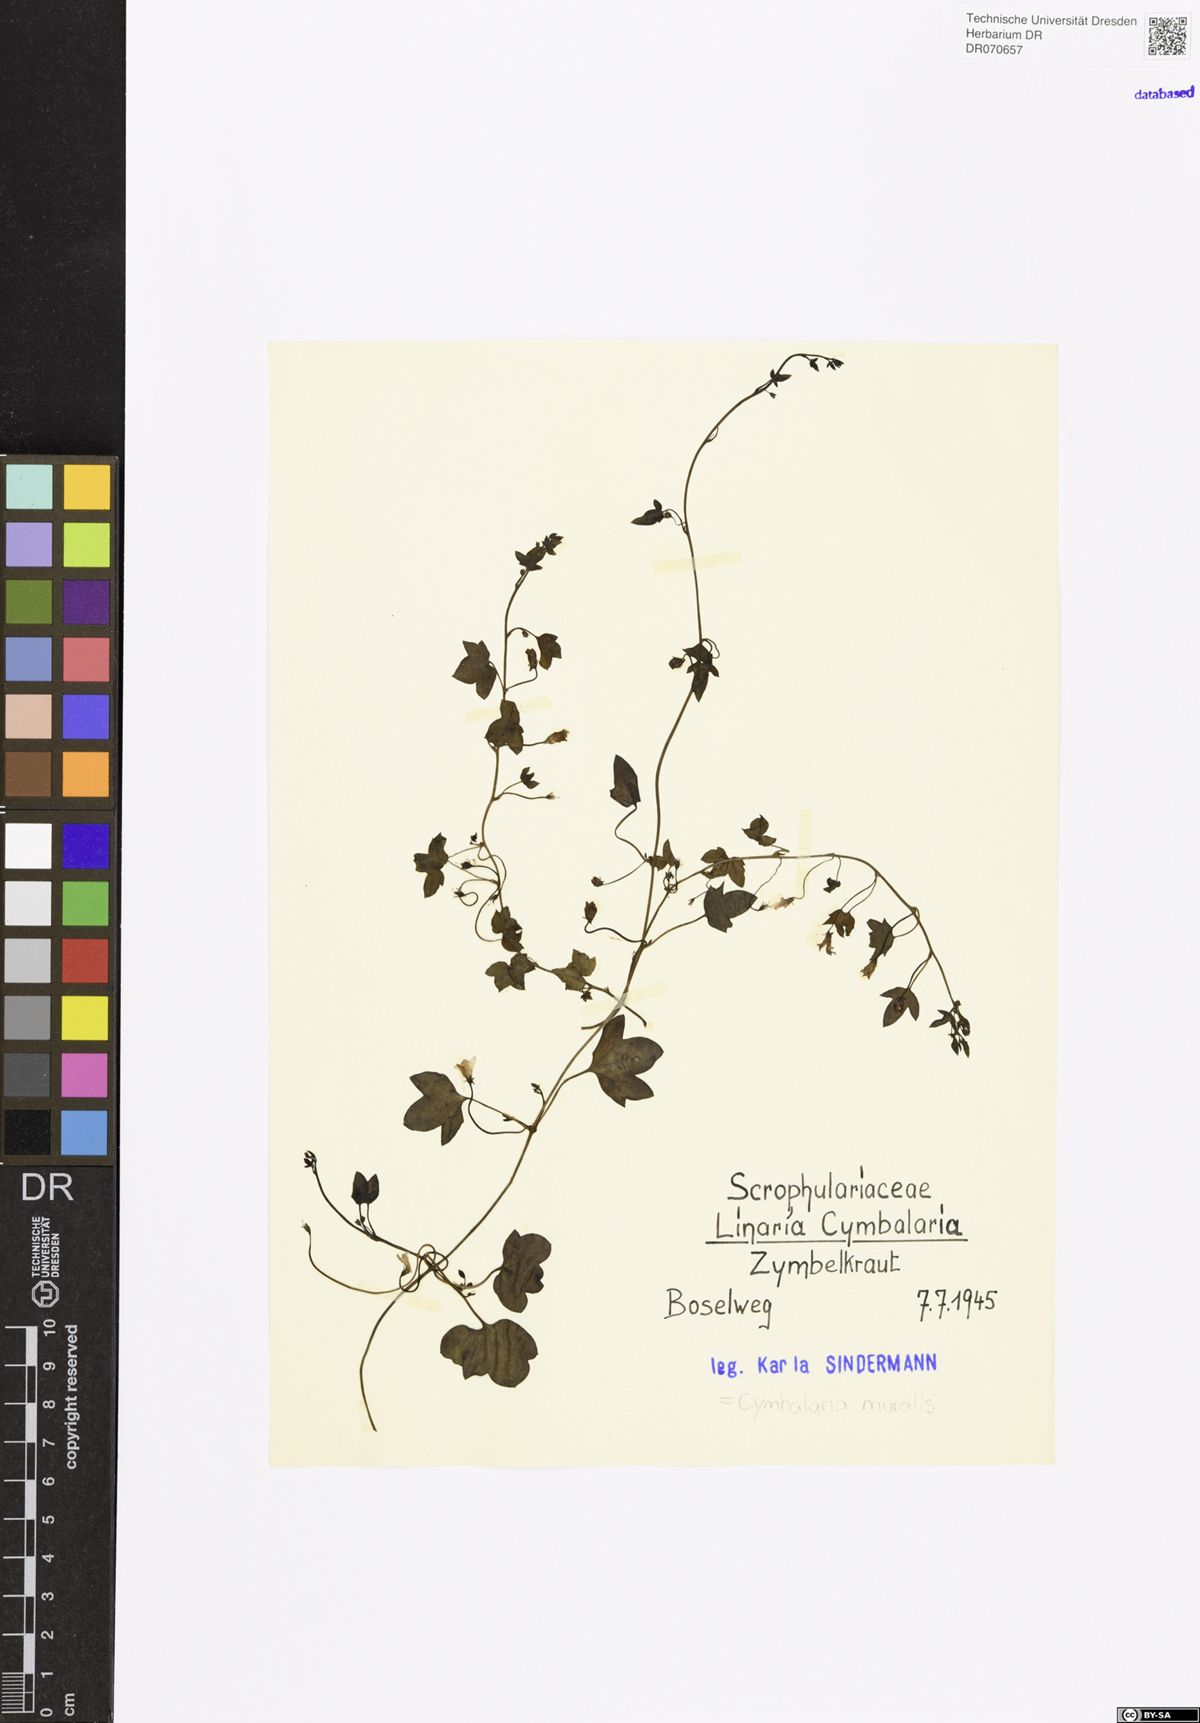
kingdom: Plantae
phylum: Tracheophyta
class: Magnoliopsida
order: Lamiales
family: Plantaginaceae
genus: Cymbalaria
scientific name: Cymbalaria muralis
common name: Ivy-leaved toadflax
